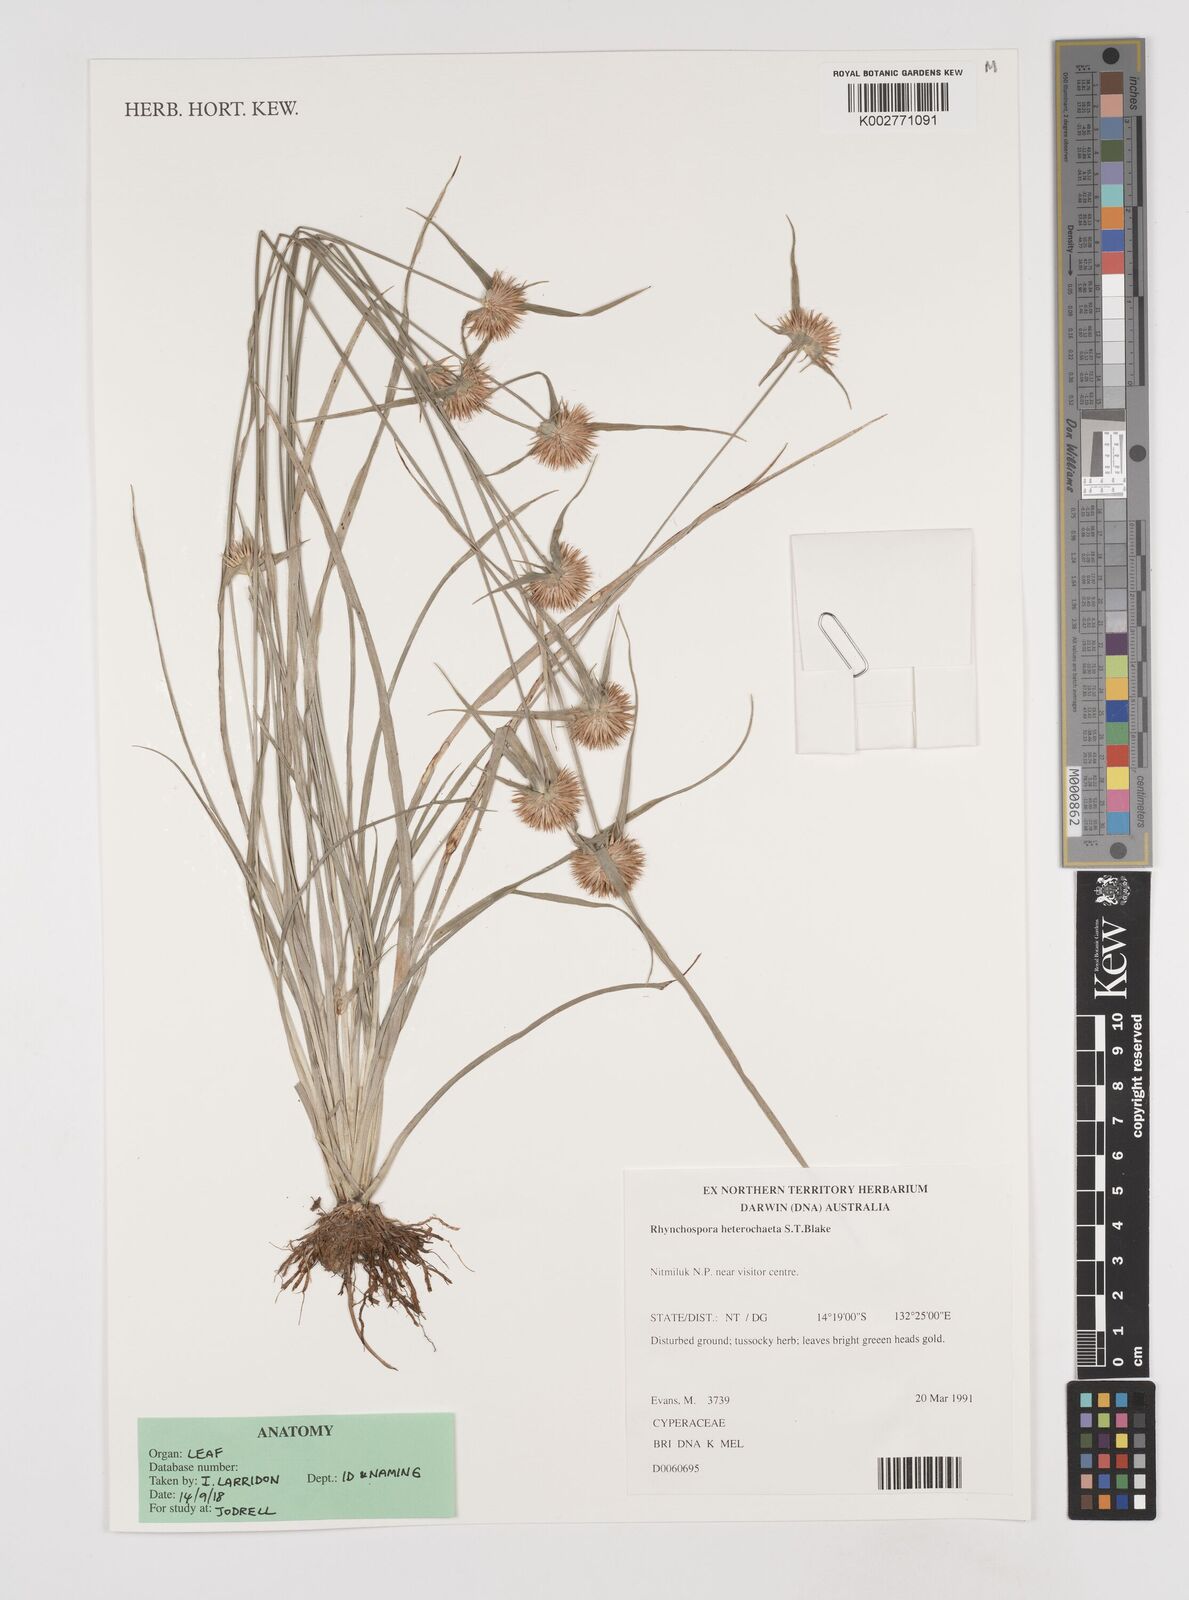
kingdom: Plantae
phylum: Tracheophyta
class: Liliopsida
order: Poales
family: Cyperaceae
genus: Rhynchospora
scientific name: Rhynchospora heterochaeta
